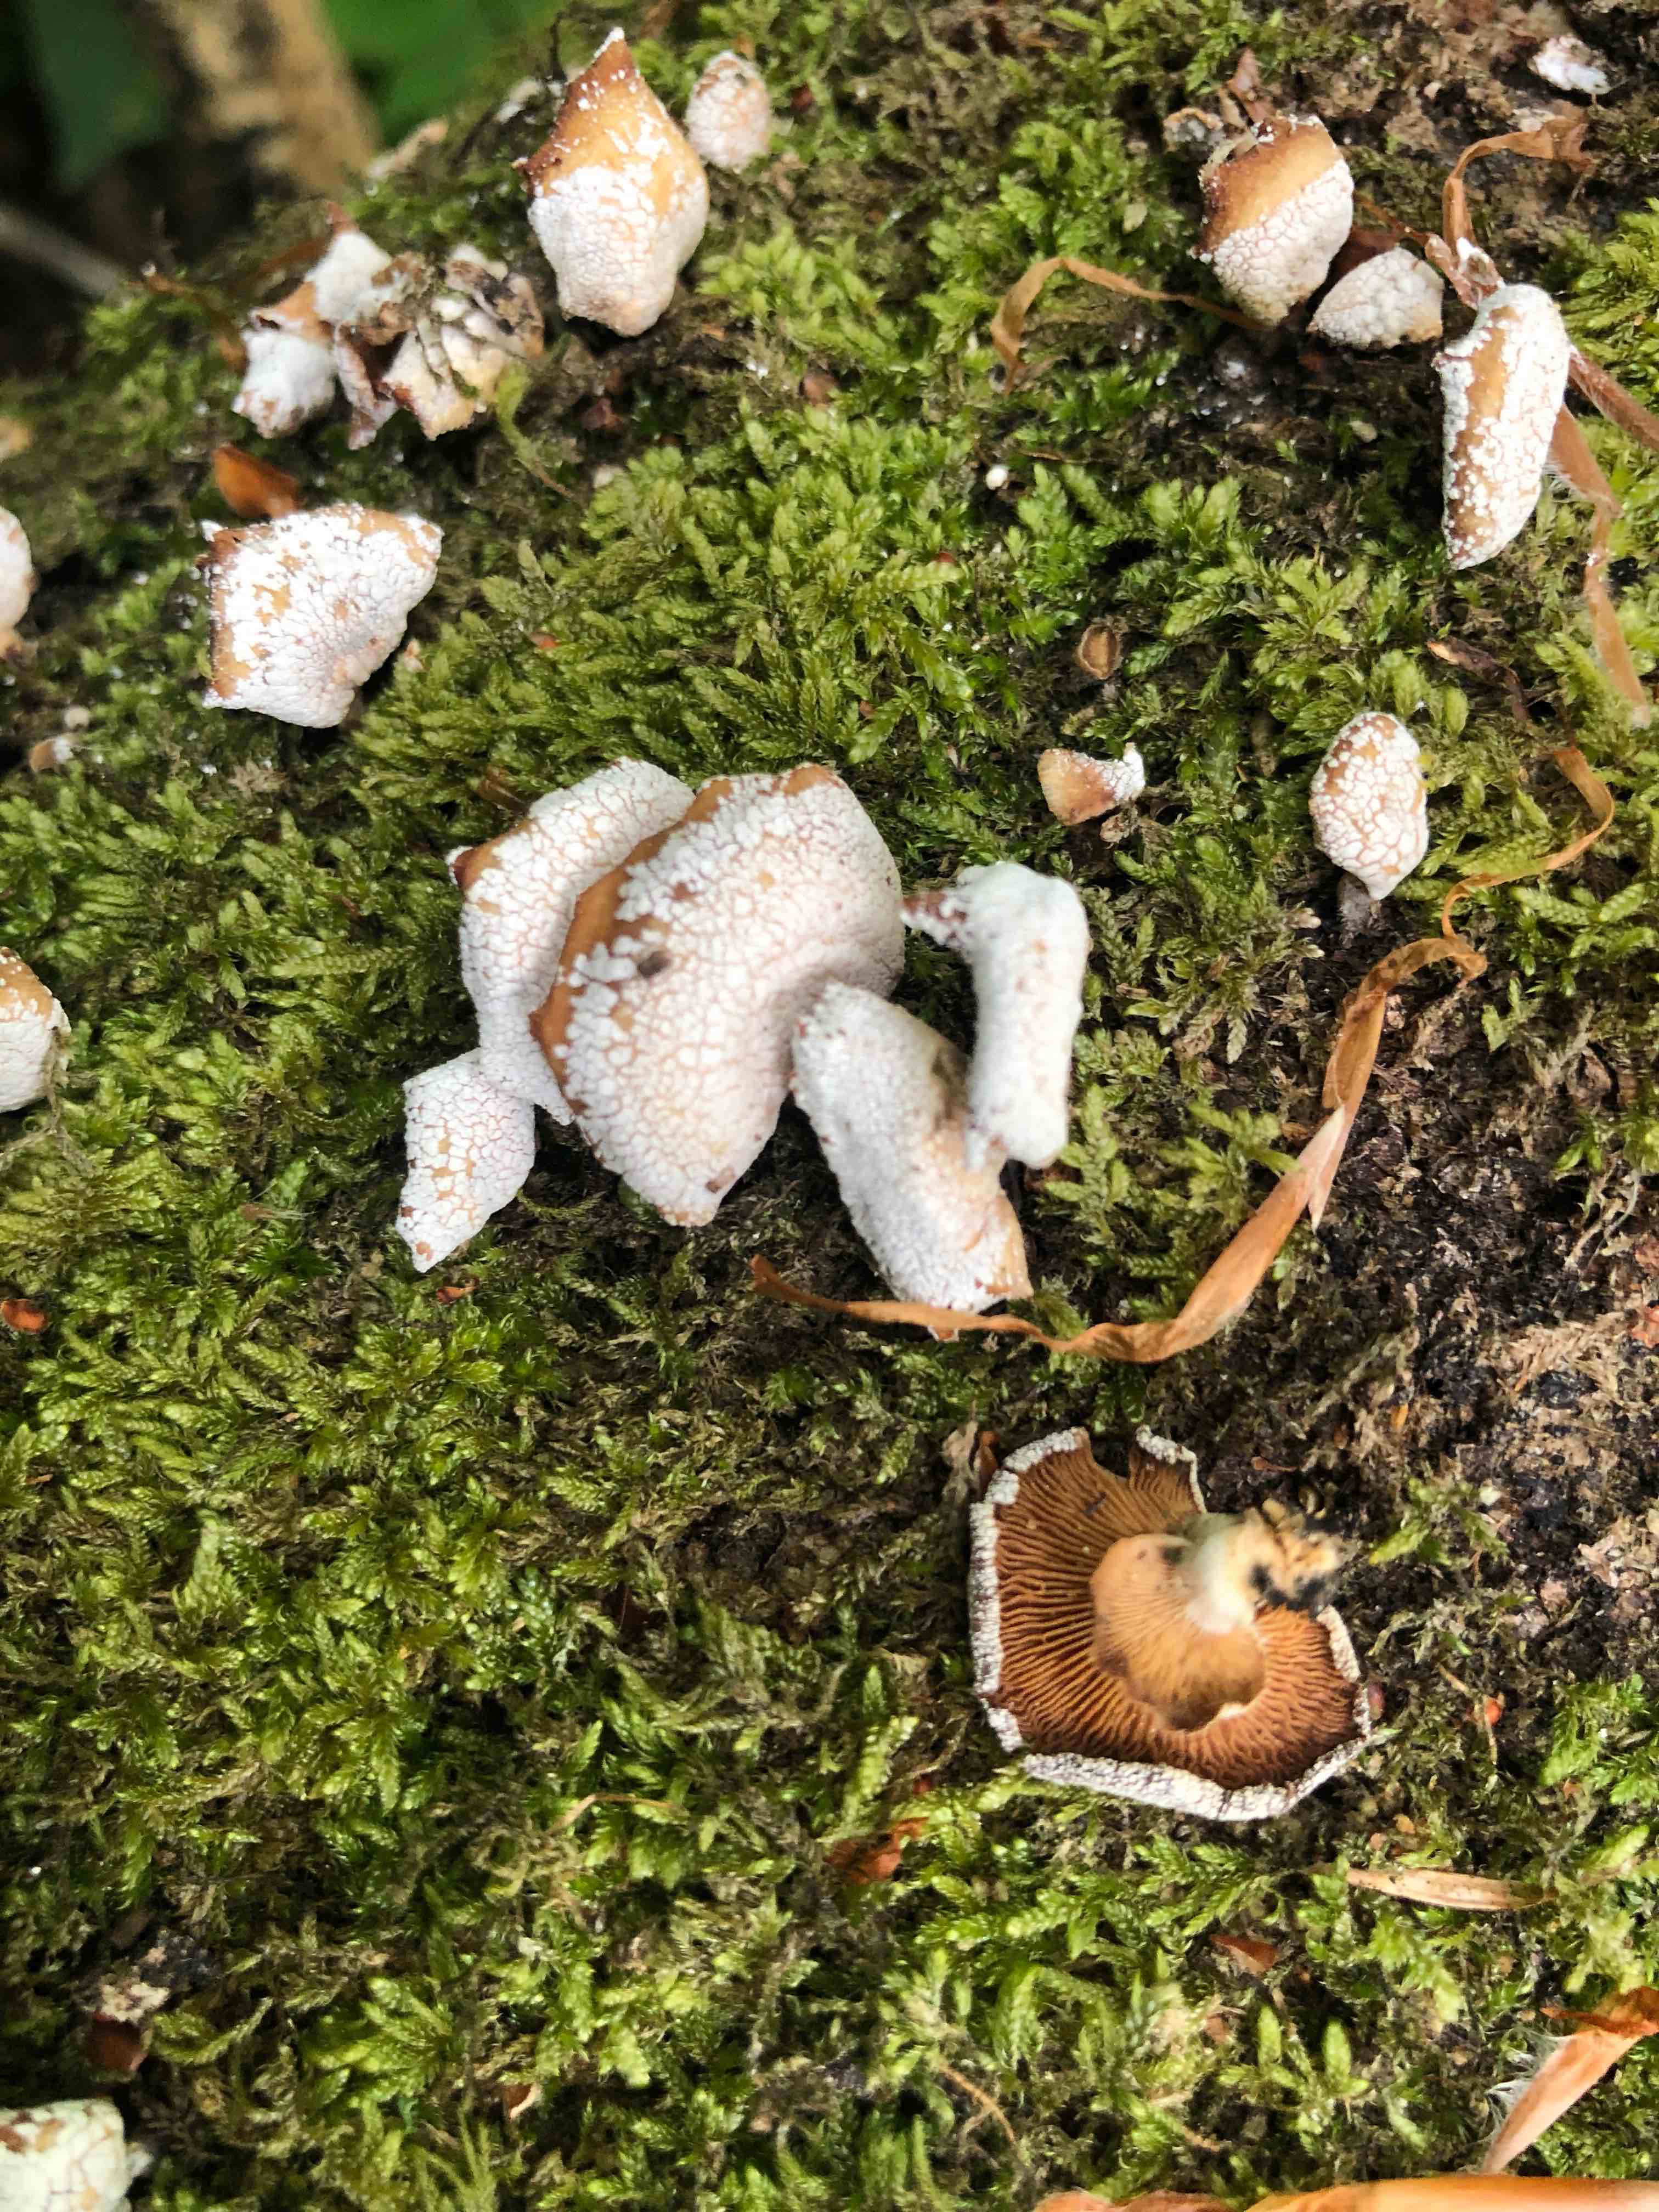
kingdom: Fungi
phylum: Basidiomycota
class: Agaricomycetes
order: Agaricales
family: Mycenaceae
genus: Panellus
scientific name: Panellus stipticus
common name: kliddet epaulethat
